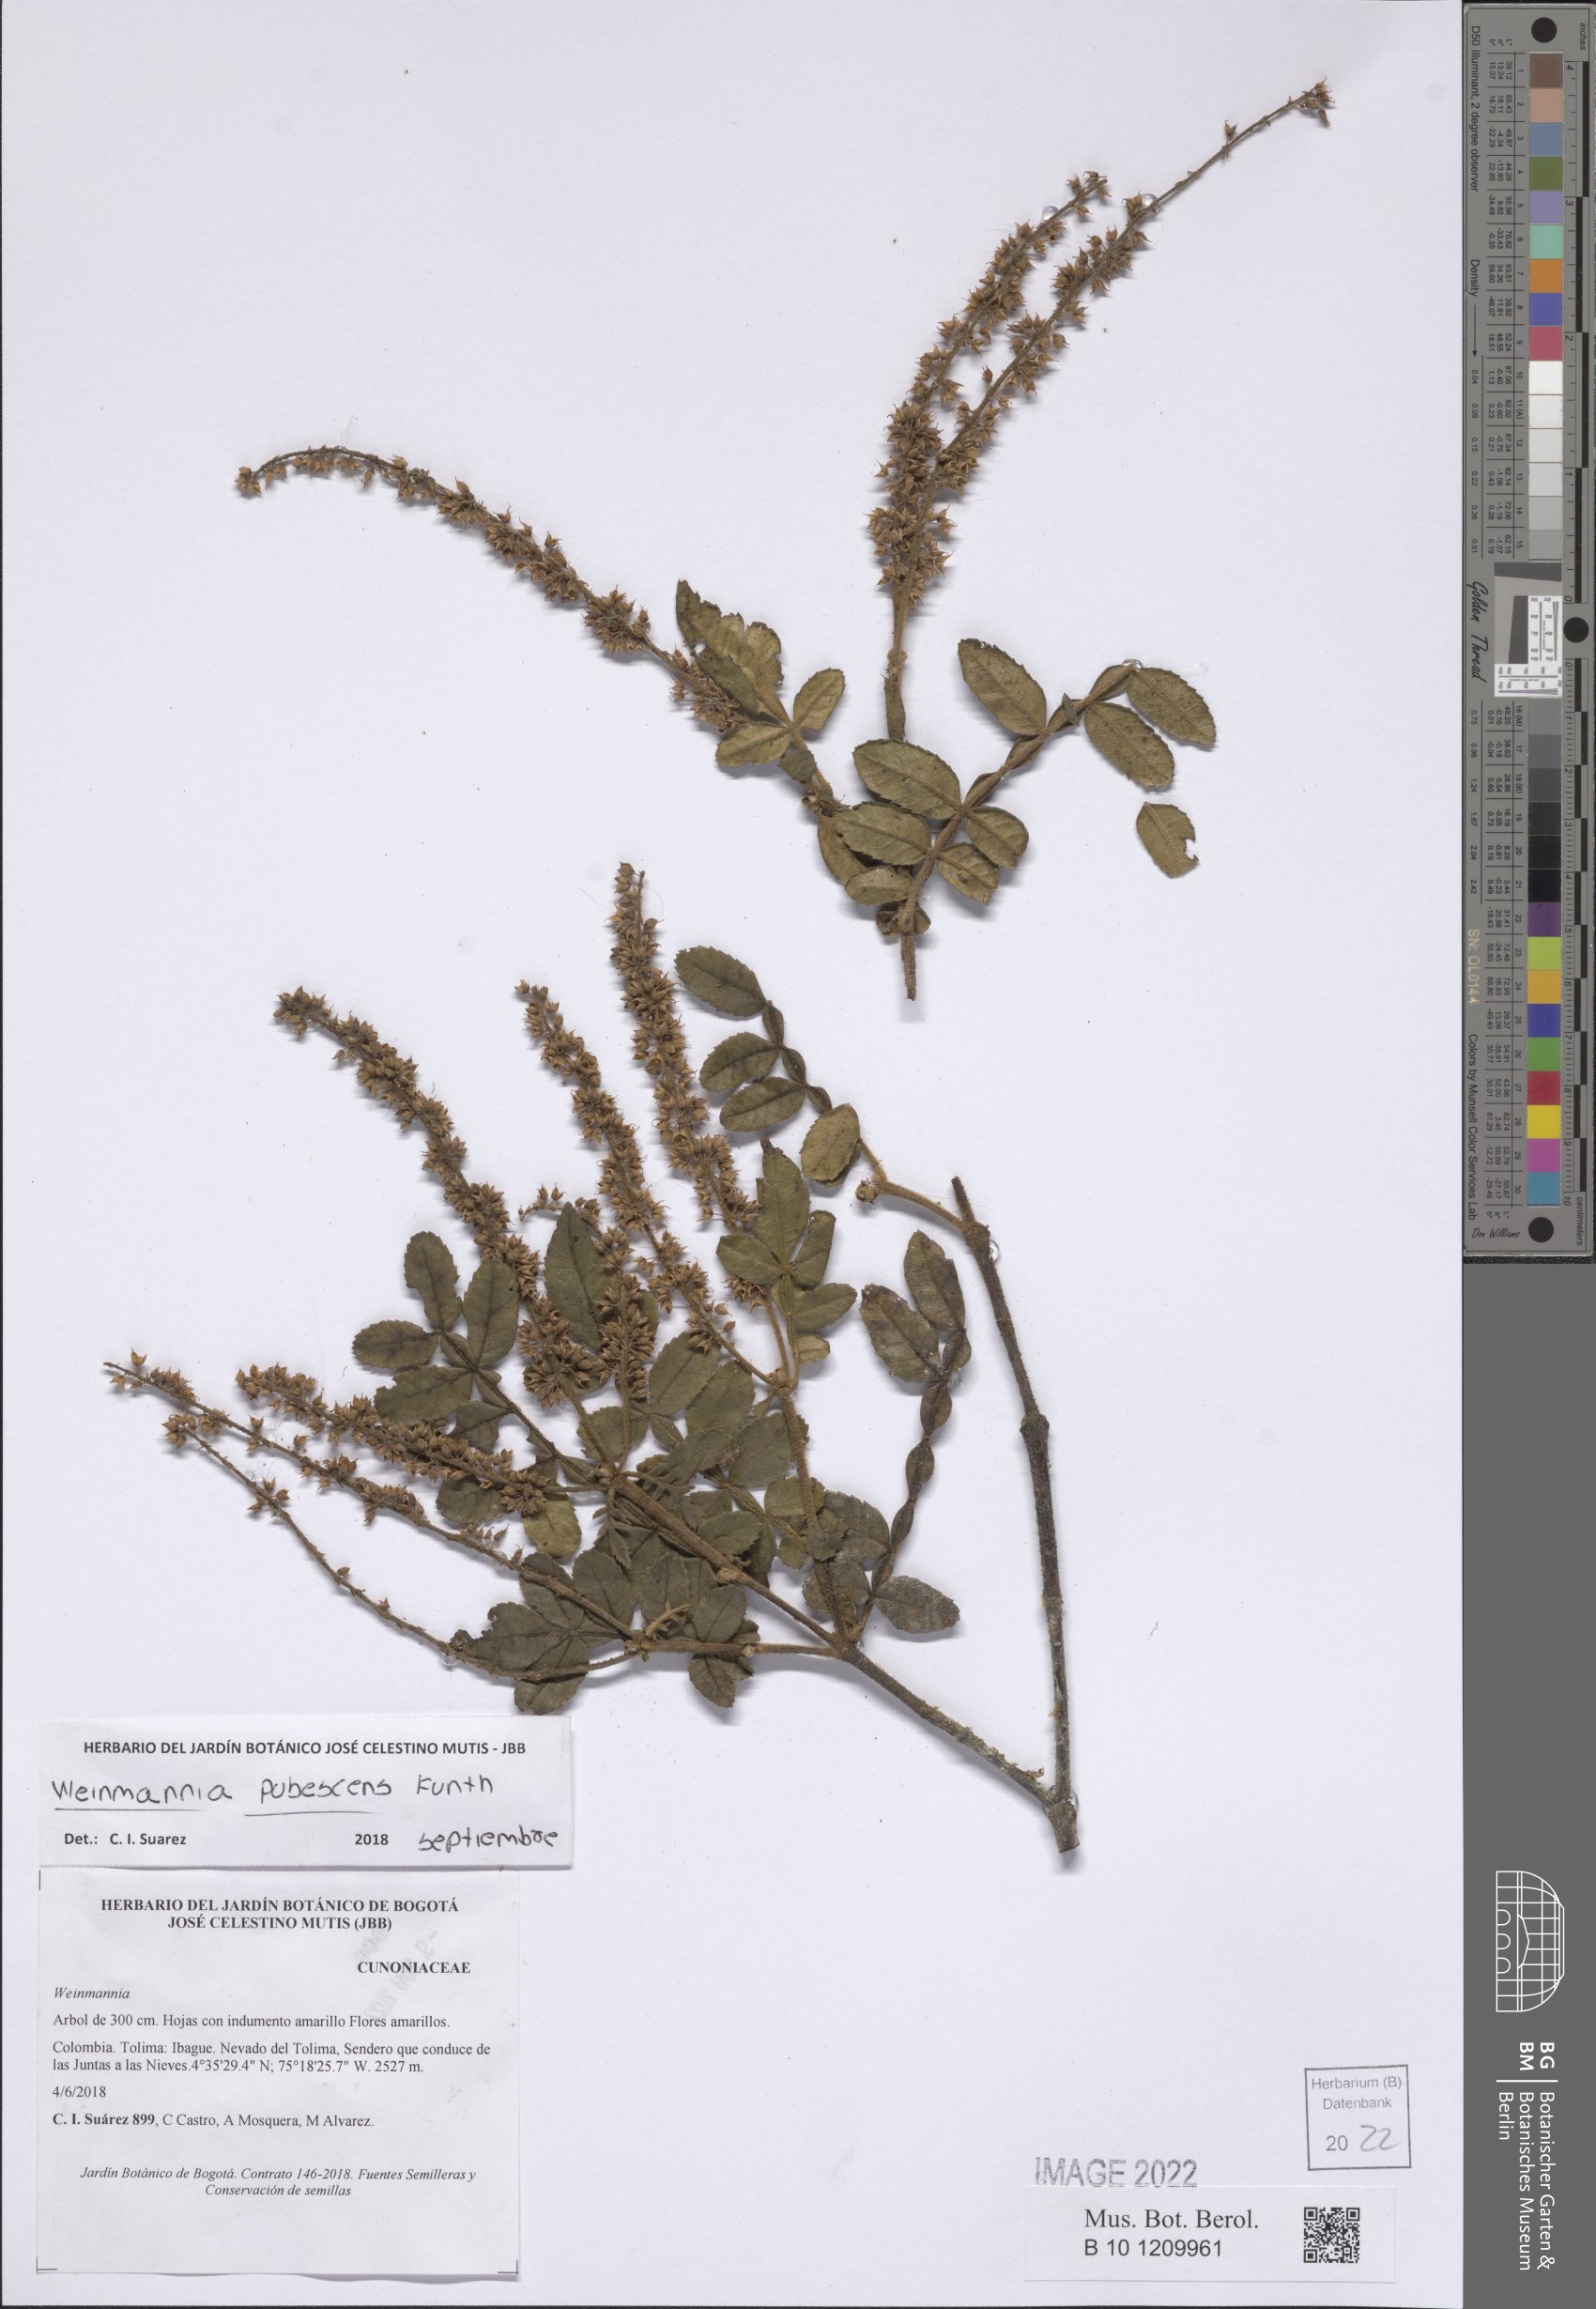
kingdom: Plantae
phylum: Tracheophyta
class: Magnoliopsida
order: Oxalidales
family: Cunoniaceae
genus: Weinmannia
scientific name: Weinmannia pubescens
